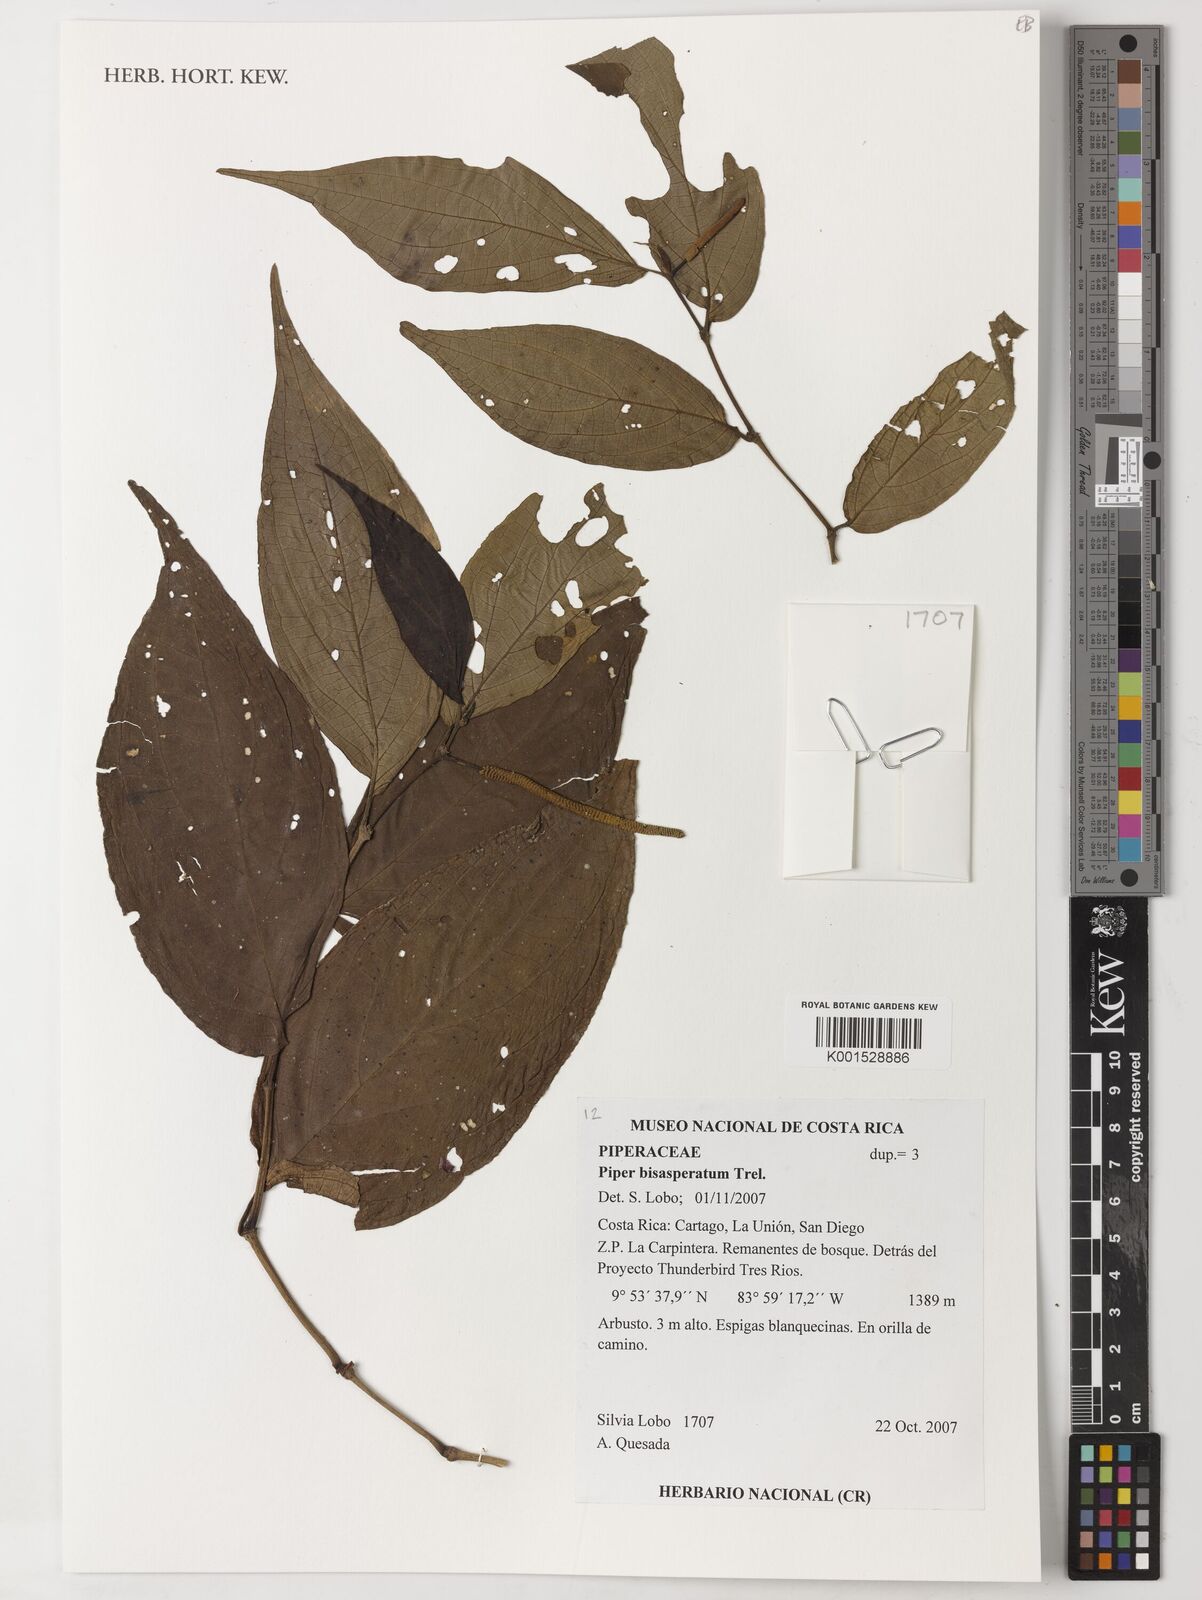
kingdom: Plantae
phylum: Tracheophyta
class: Magnoliopsida
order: Piperales
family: Piperaceae
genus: Piper
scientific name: Piper bisasperatum
